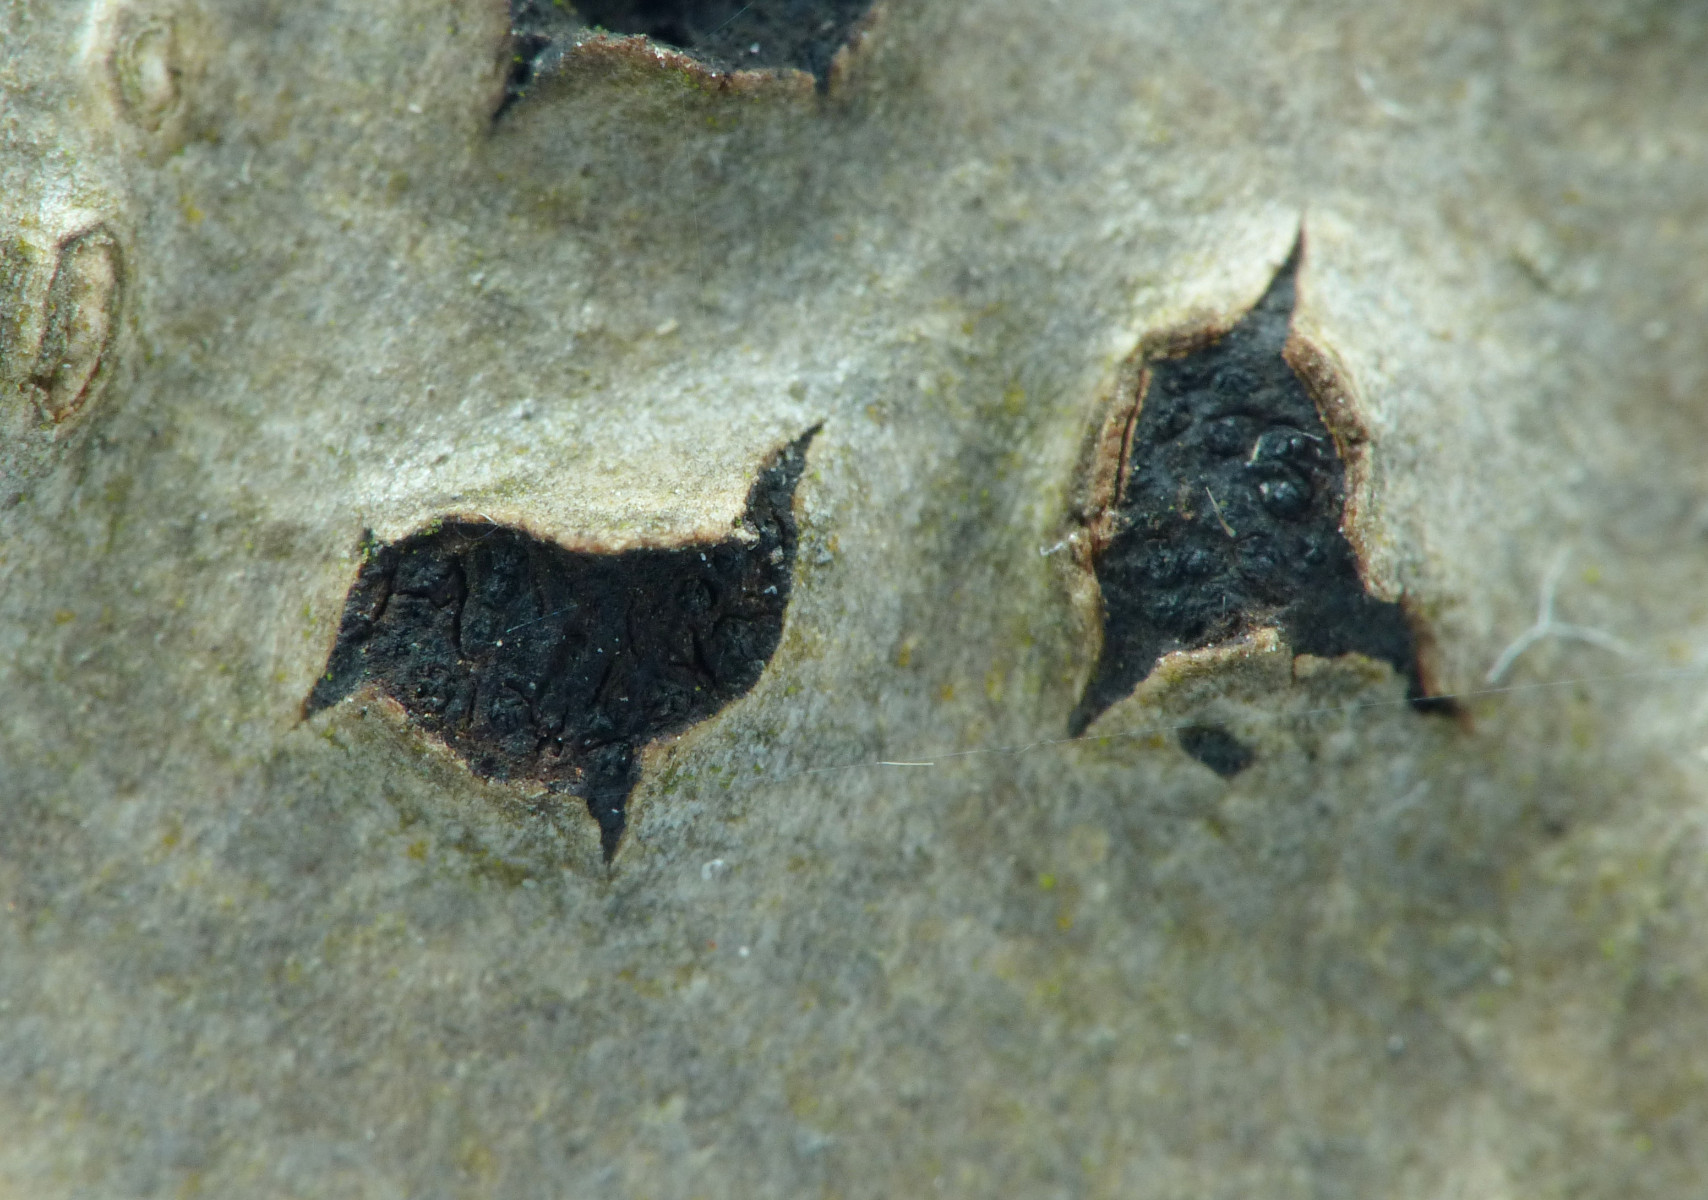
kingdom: Fungi
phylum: Ascomycota
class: Sordariomycetes
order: Xylariales
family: Diatrypaceae
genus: Diatrypella
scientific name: Diatrypella favacea
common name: klemt kulskorpe
